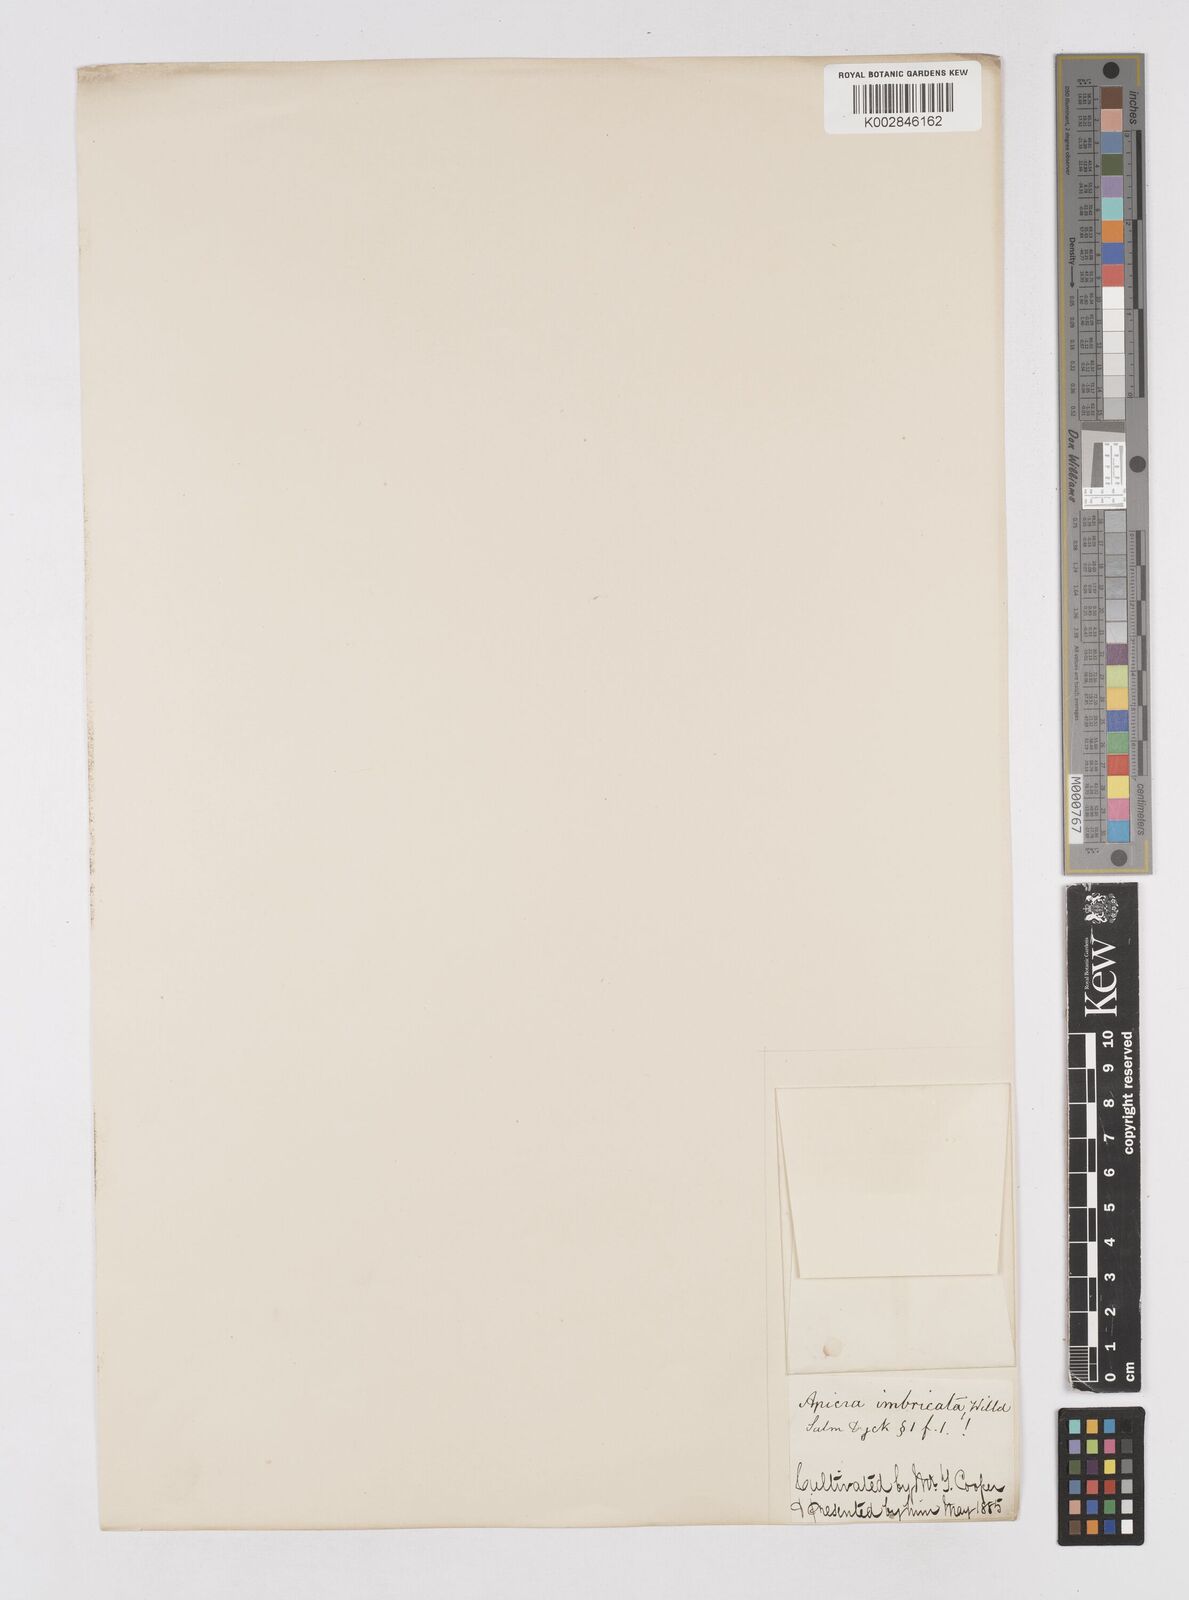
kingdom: Plantae
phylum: Tracheophyta
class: Liliopsida
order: Asparagales
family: Asphodelaceae
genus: Astroloba
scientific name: Astroloba spiralis
